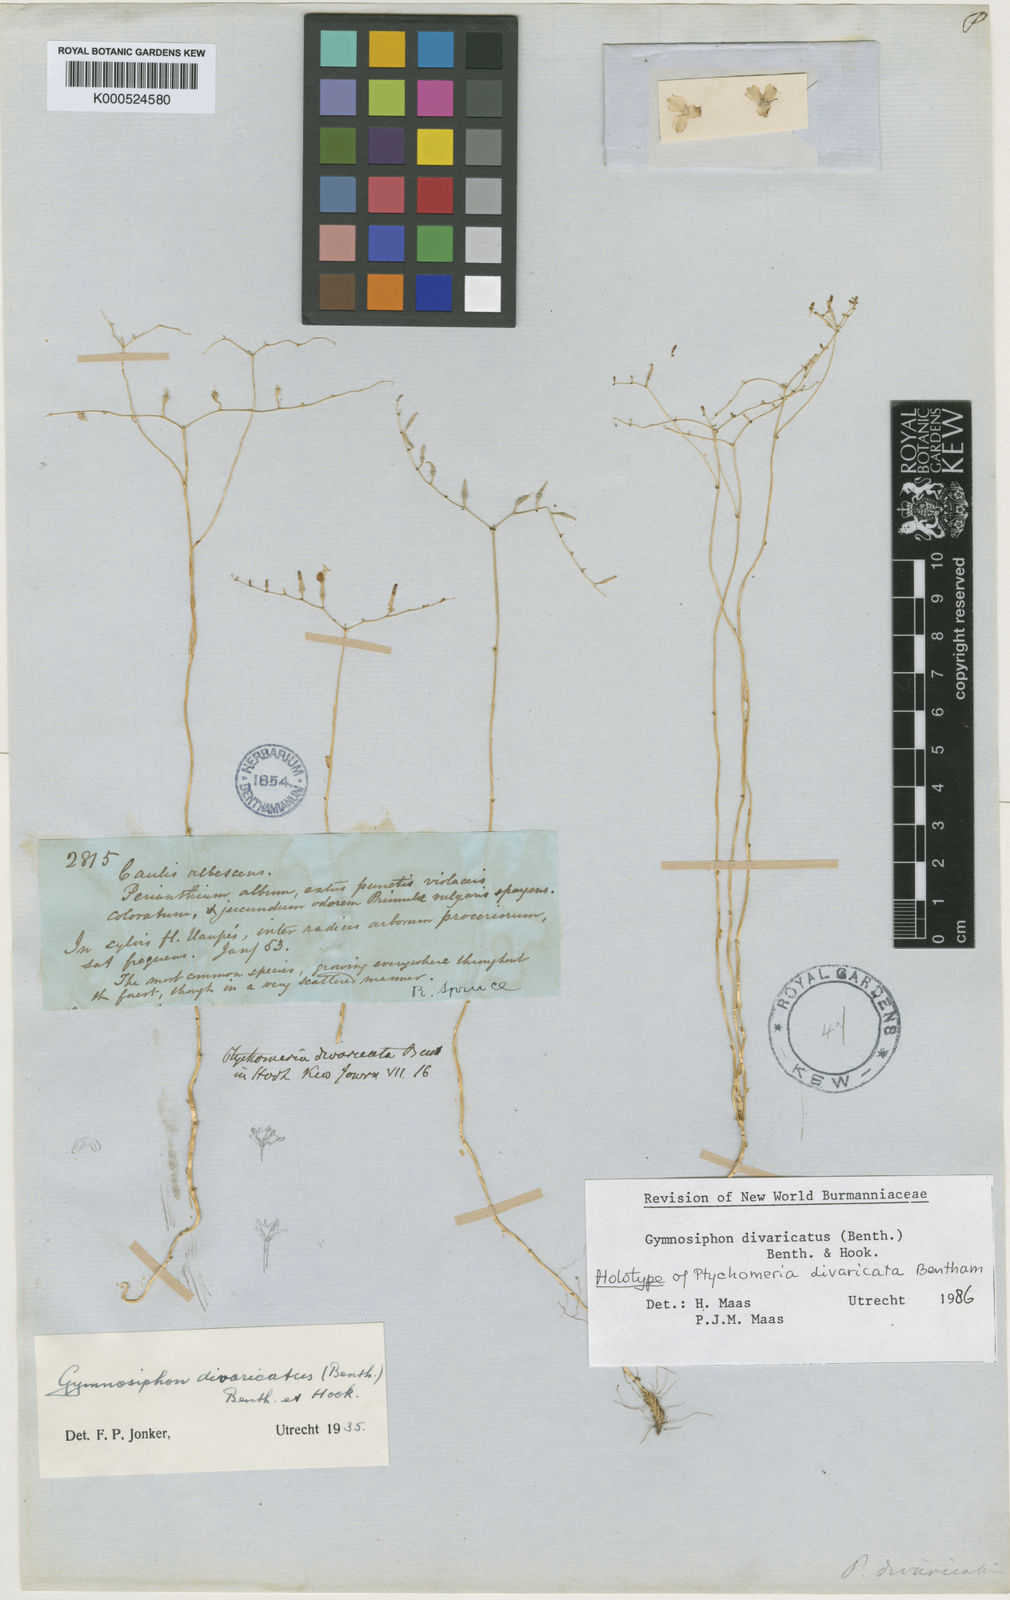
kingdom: Plantae
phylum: Tracheophyta
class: Liliopsida
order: Dioscoreales
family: Burmanniaceae
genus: Gymnosiphon
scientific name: Gymnosiphon divaricatus
